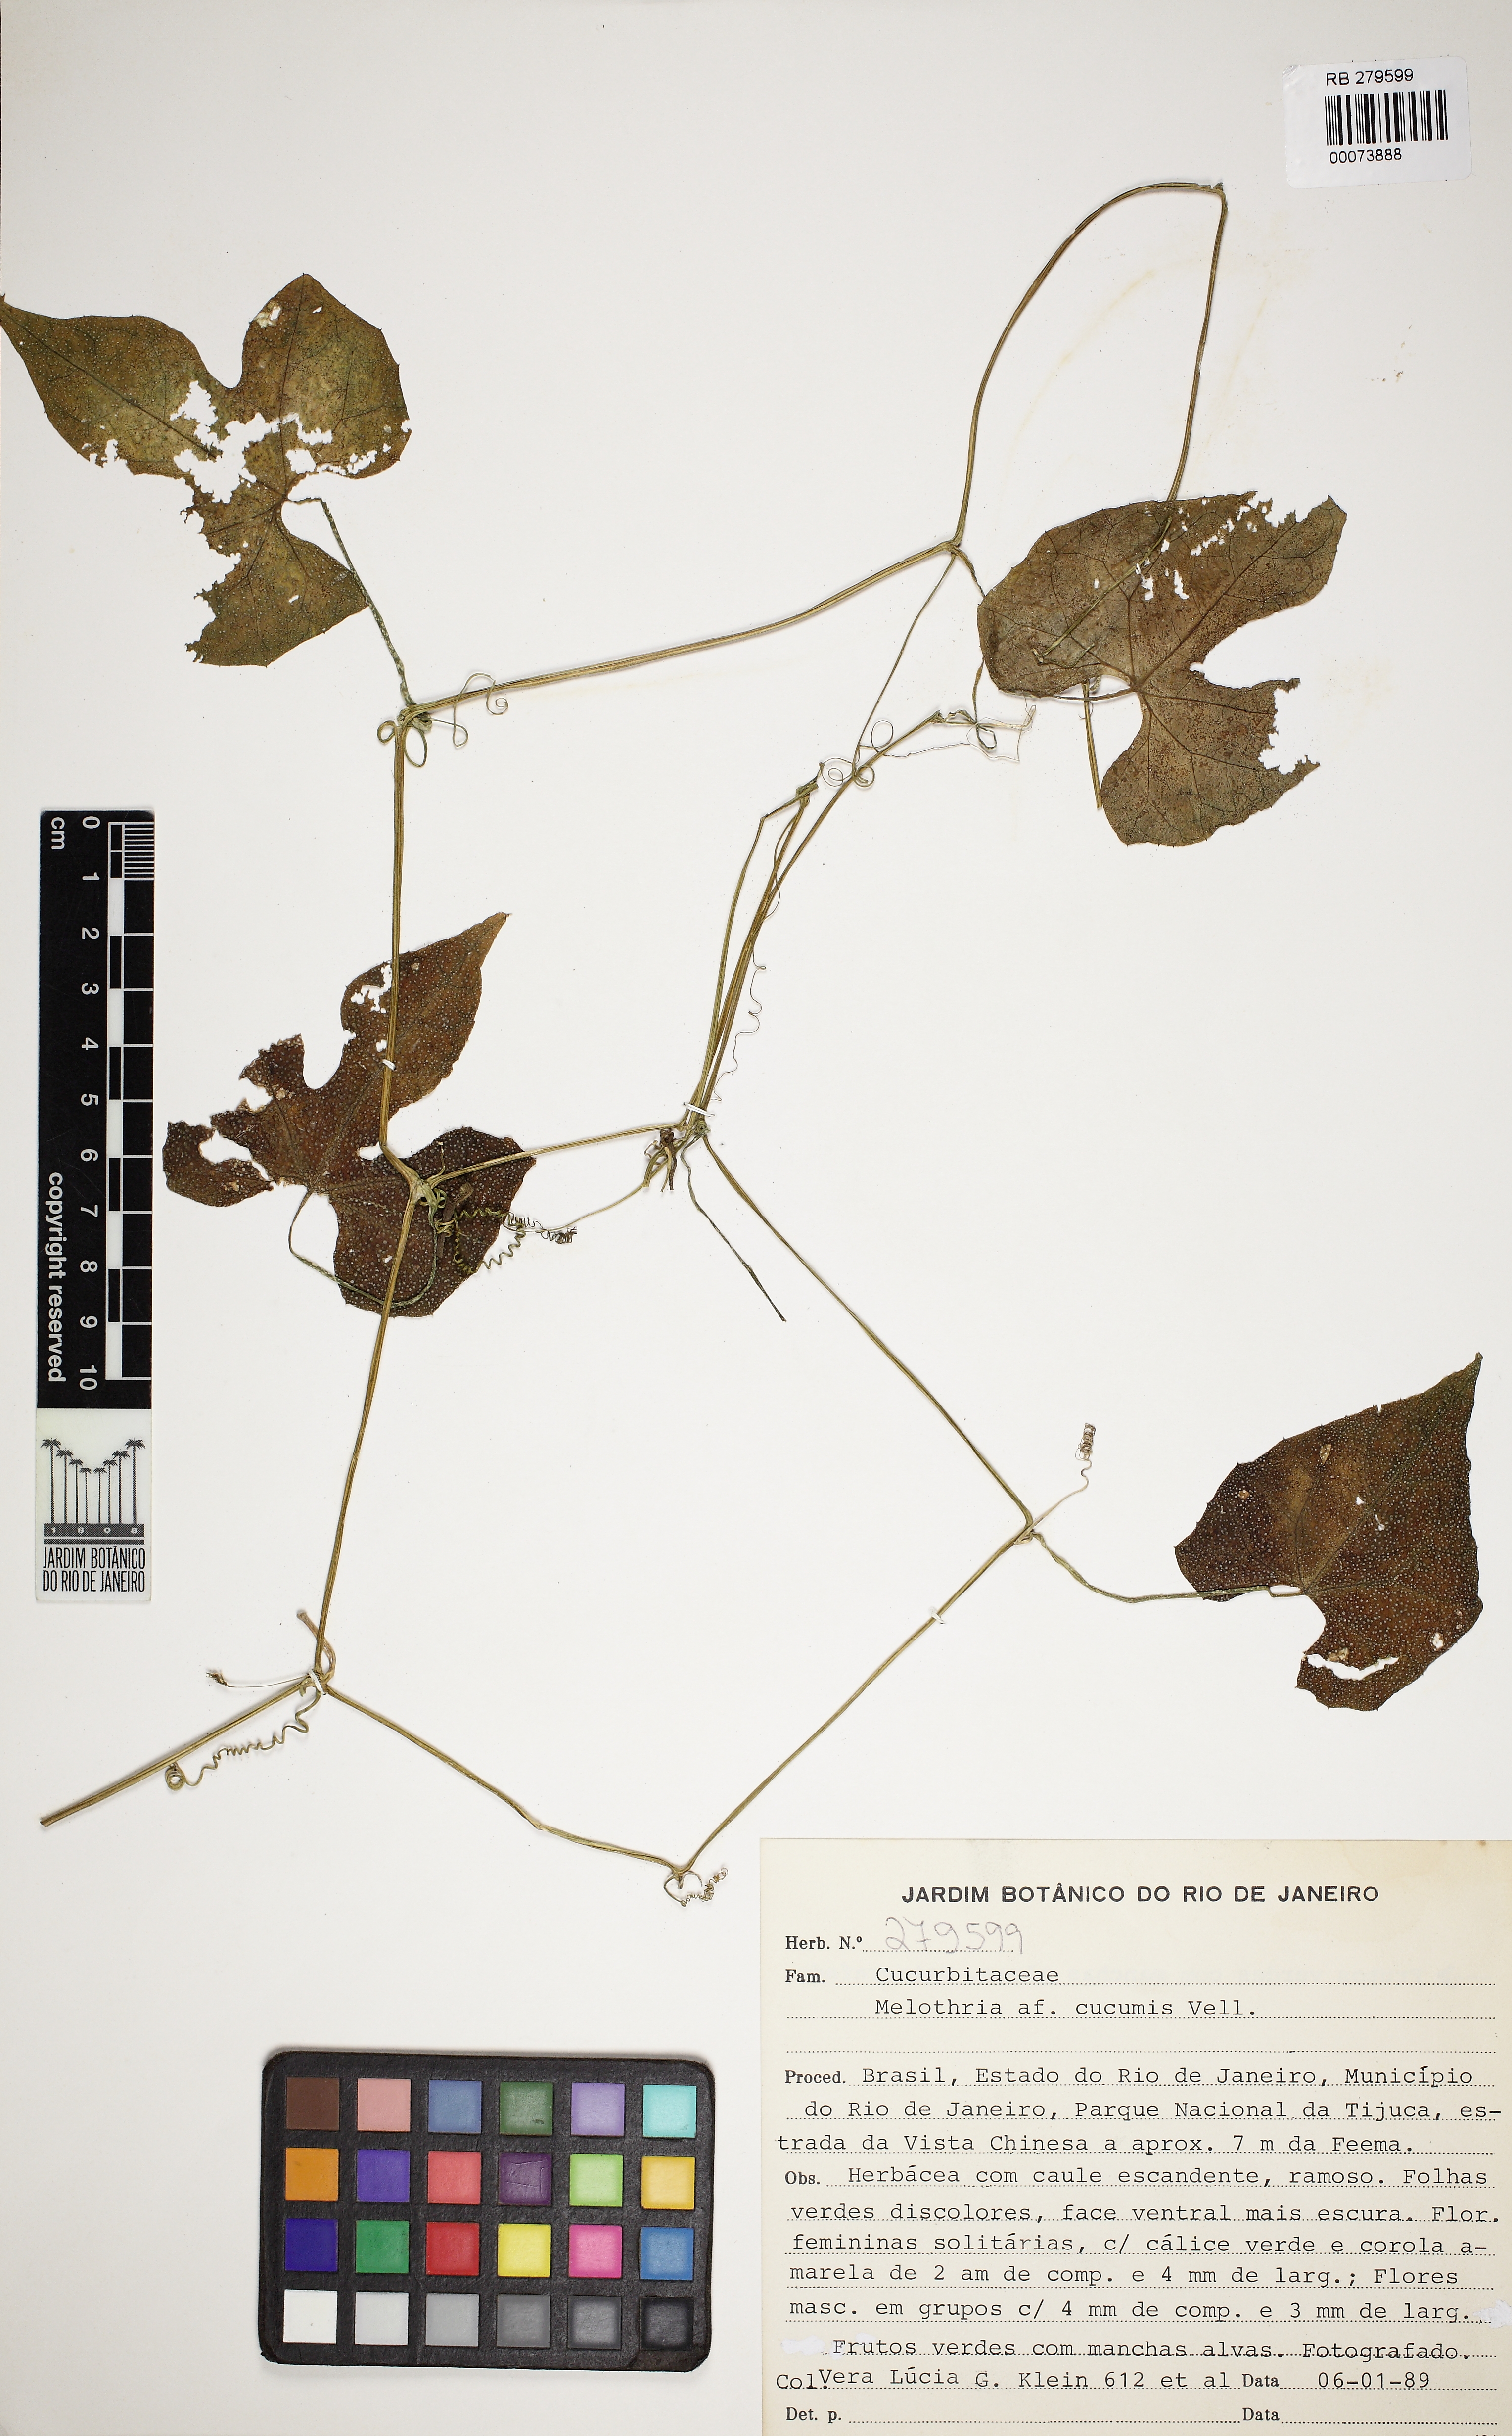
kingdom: Plantae
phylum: Tracheophyta
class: Magnoliopsida
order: Cucurbitales
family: Cucurbitaceae
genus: Melothria
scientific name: Melothria cucumis
